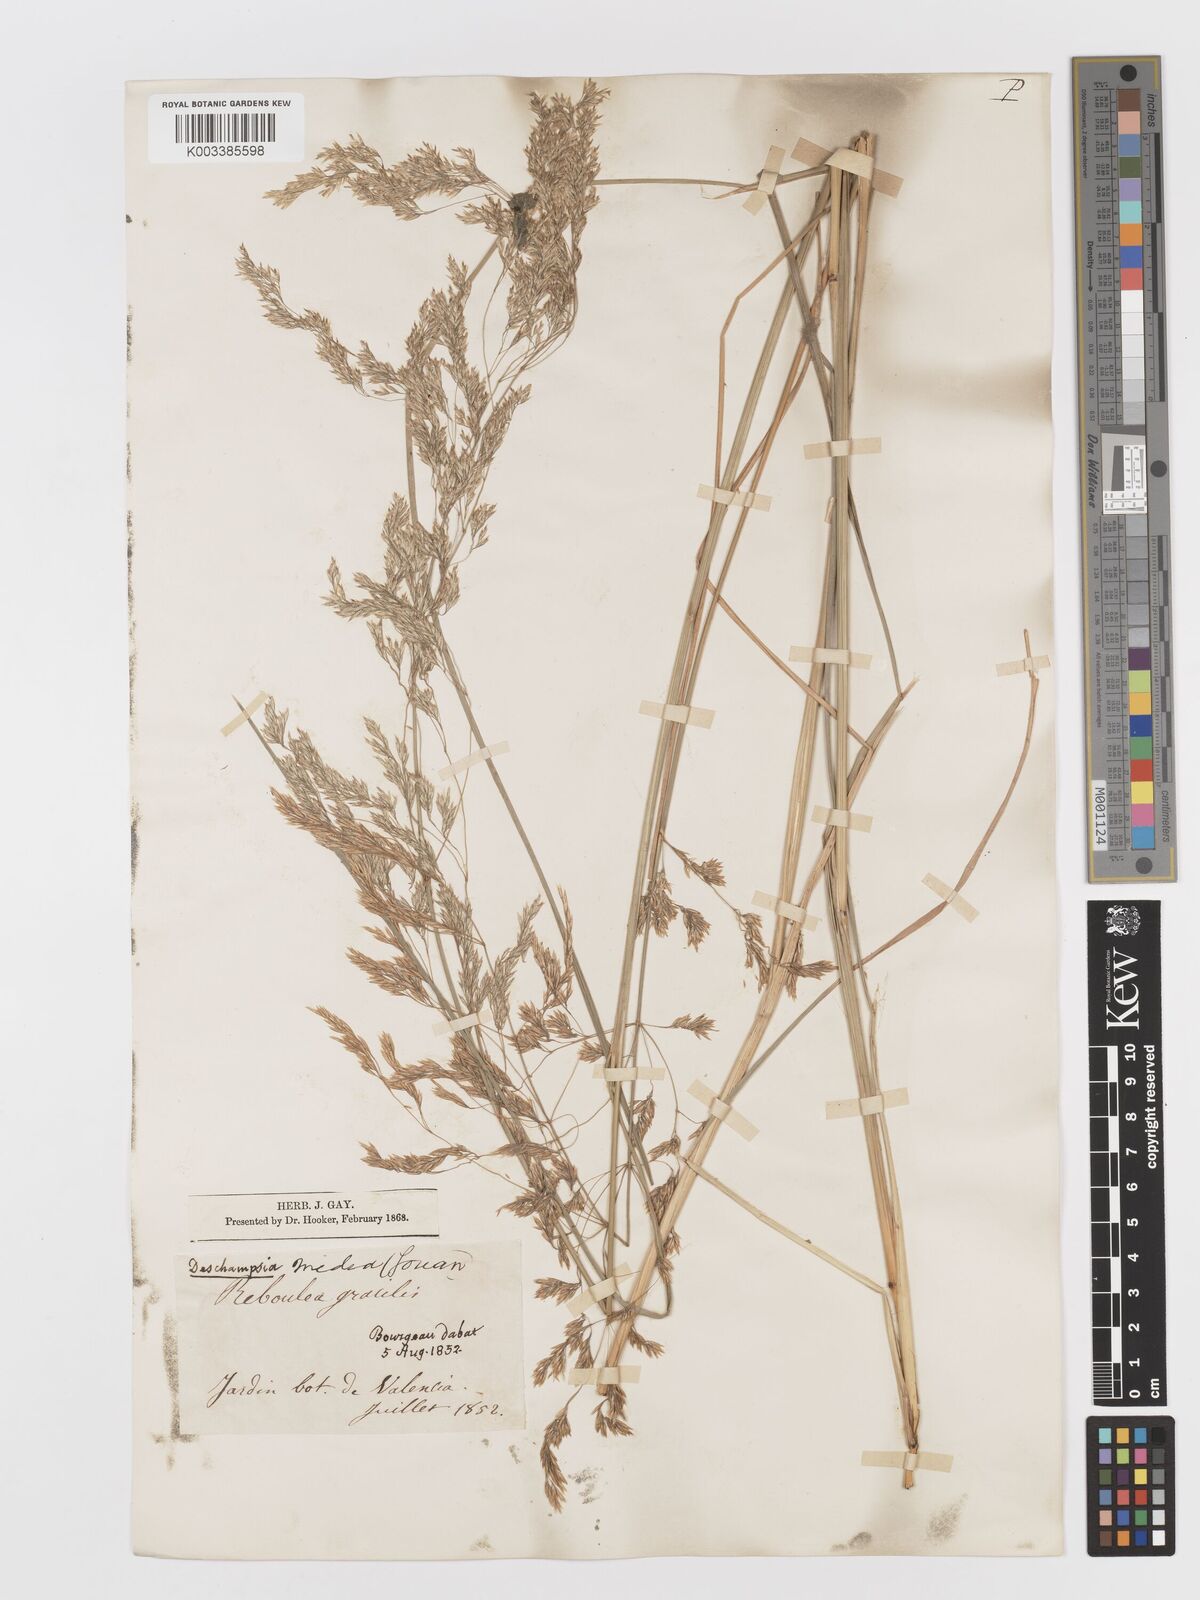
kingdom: Plantae
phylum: Tracheophyta
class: Liliopsida
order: Poales
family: Poaceae
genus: Deschampsia
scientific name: Deschampsia media
